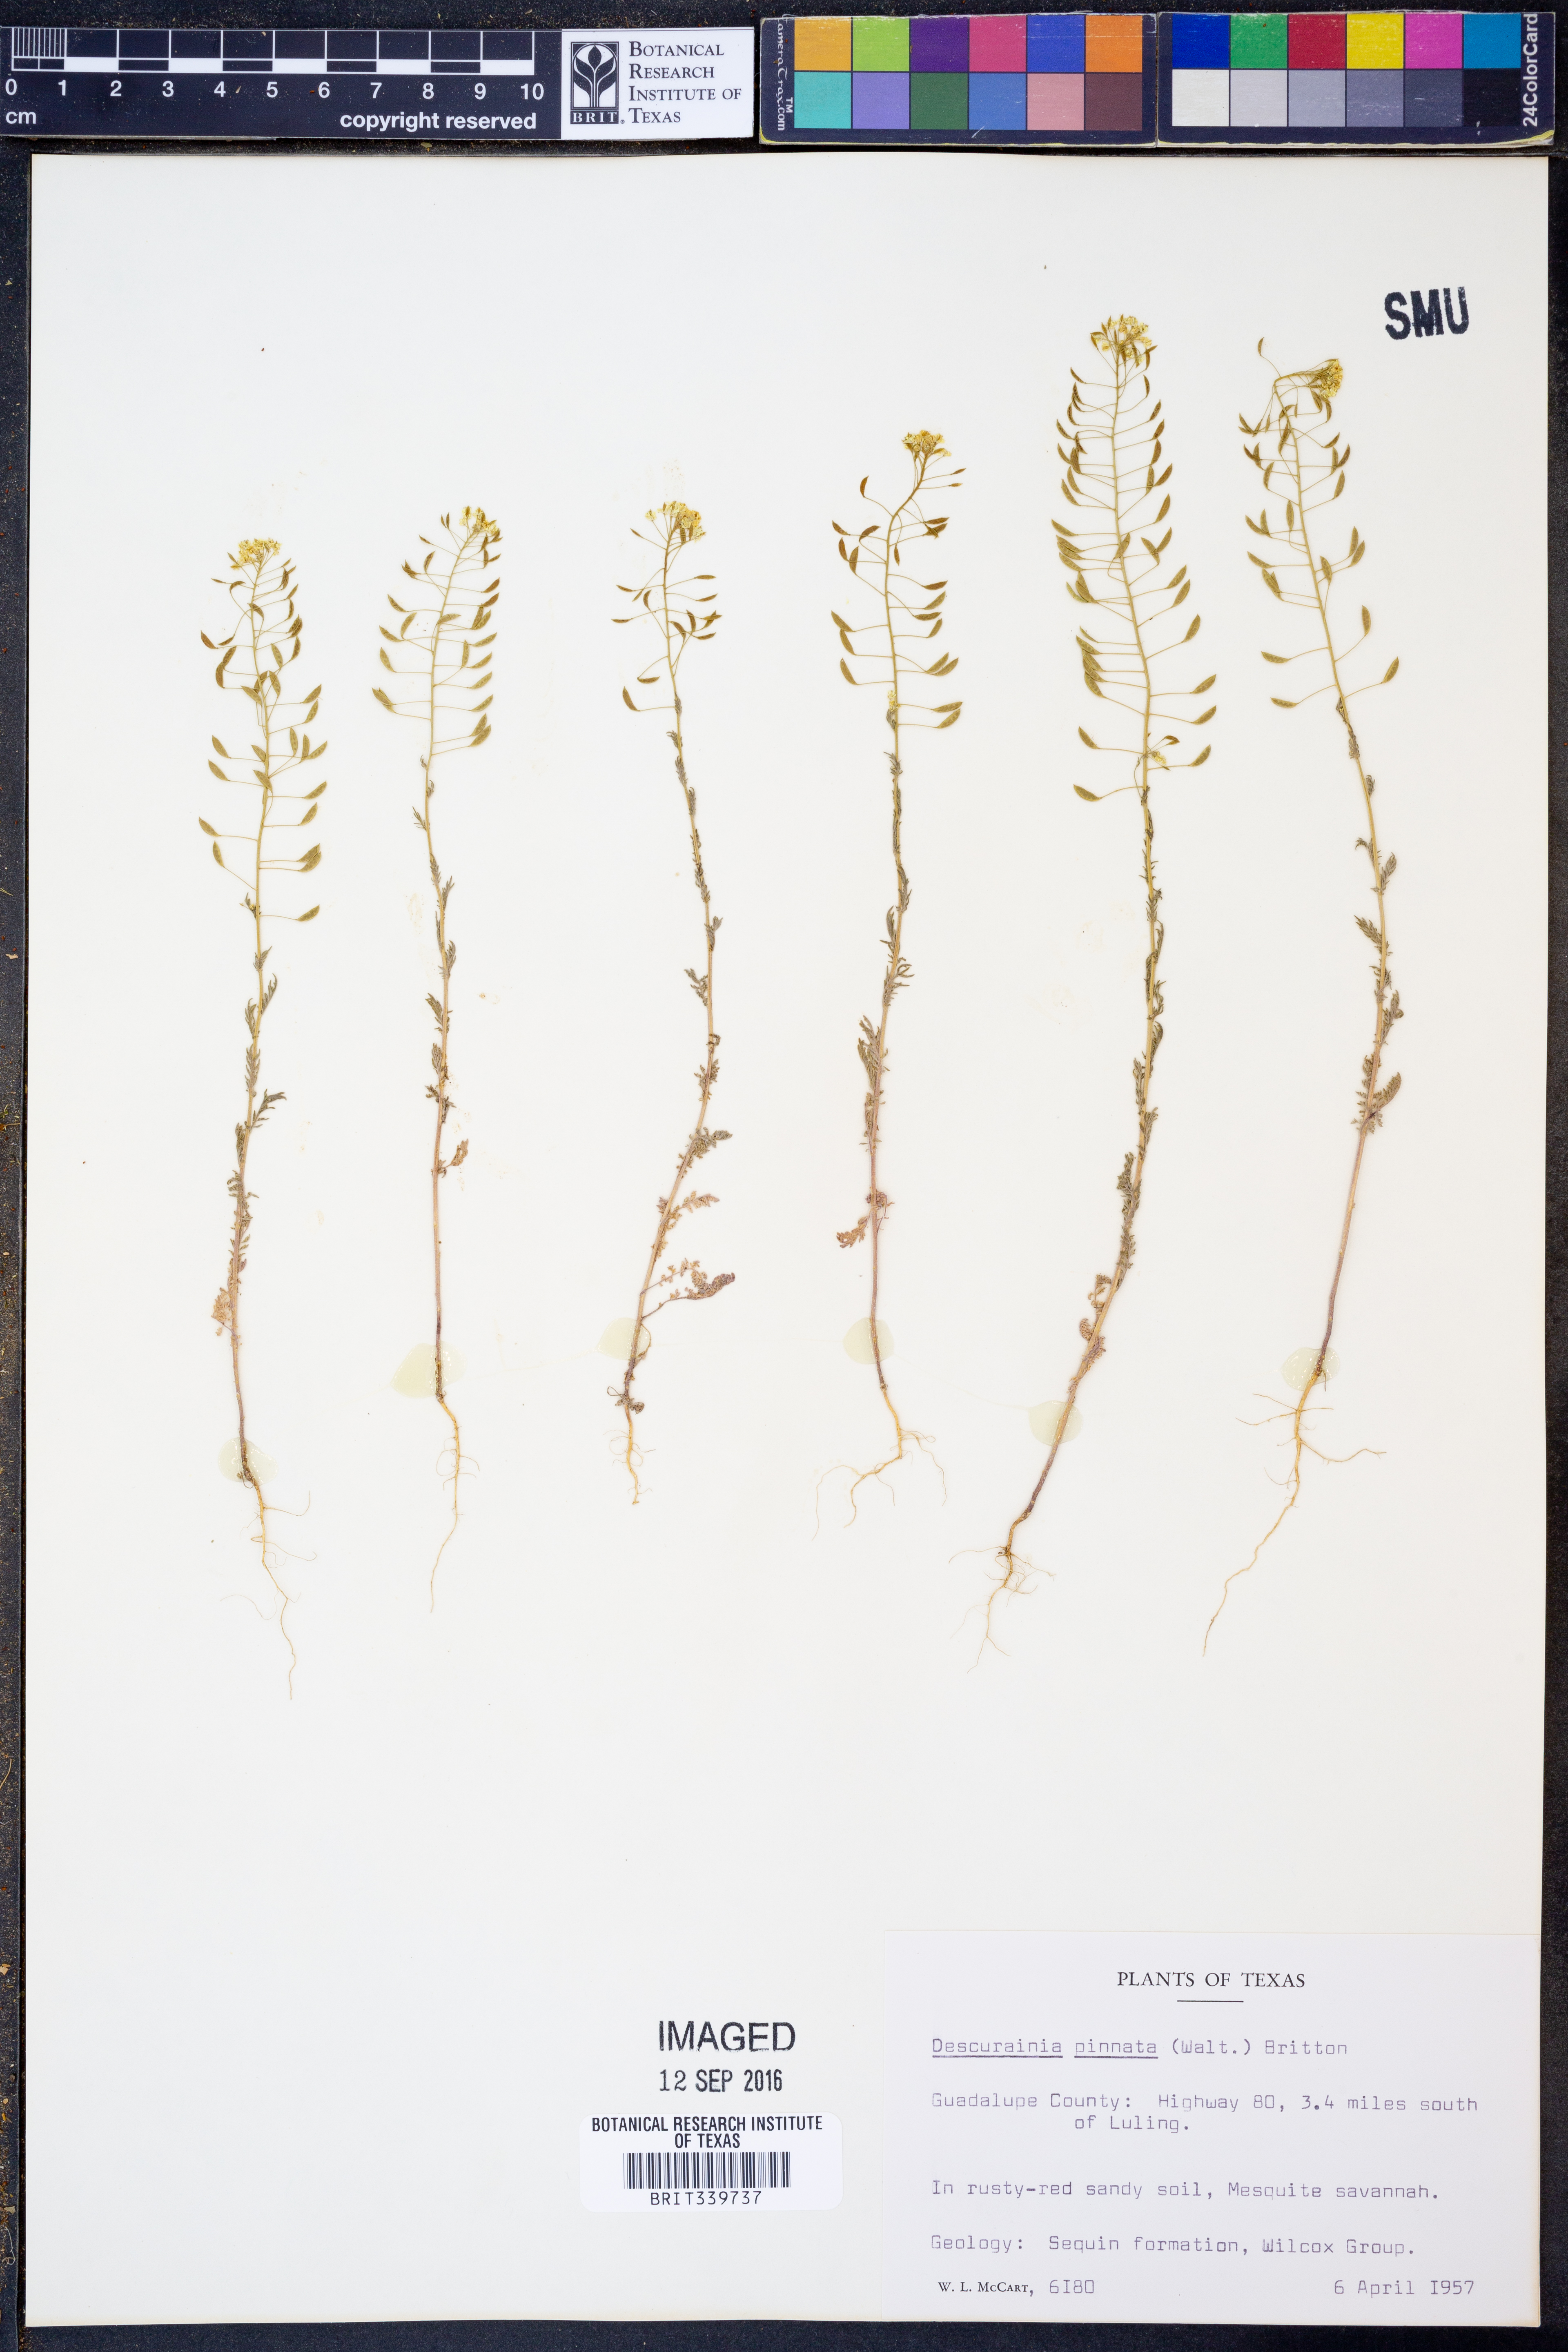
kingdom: Plantae
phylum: Tracheophyta
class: Magnoliopsida
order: Brassicales
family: Brassicaceae
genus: Descurainia
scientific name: Descurainia pinnata
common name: Western tansy mustard
